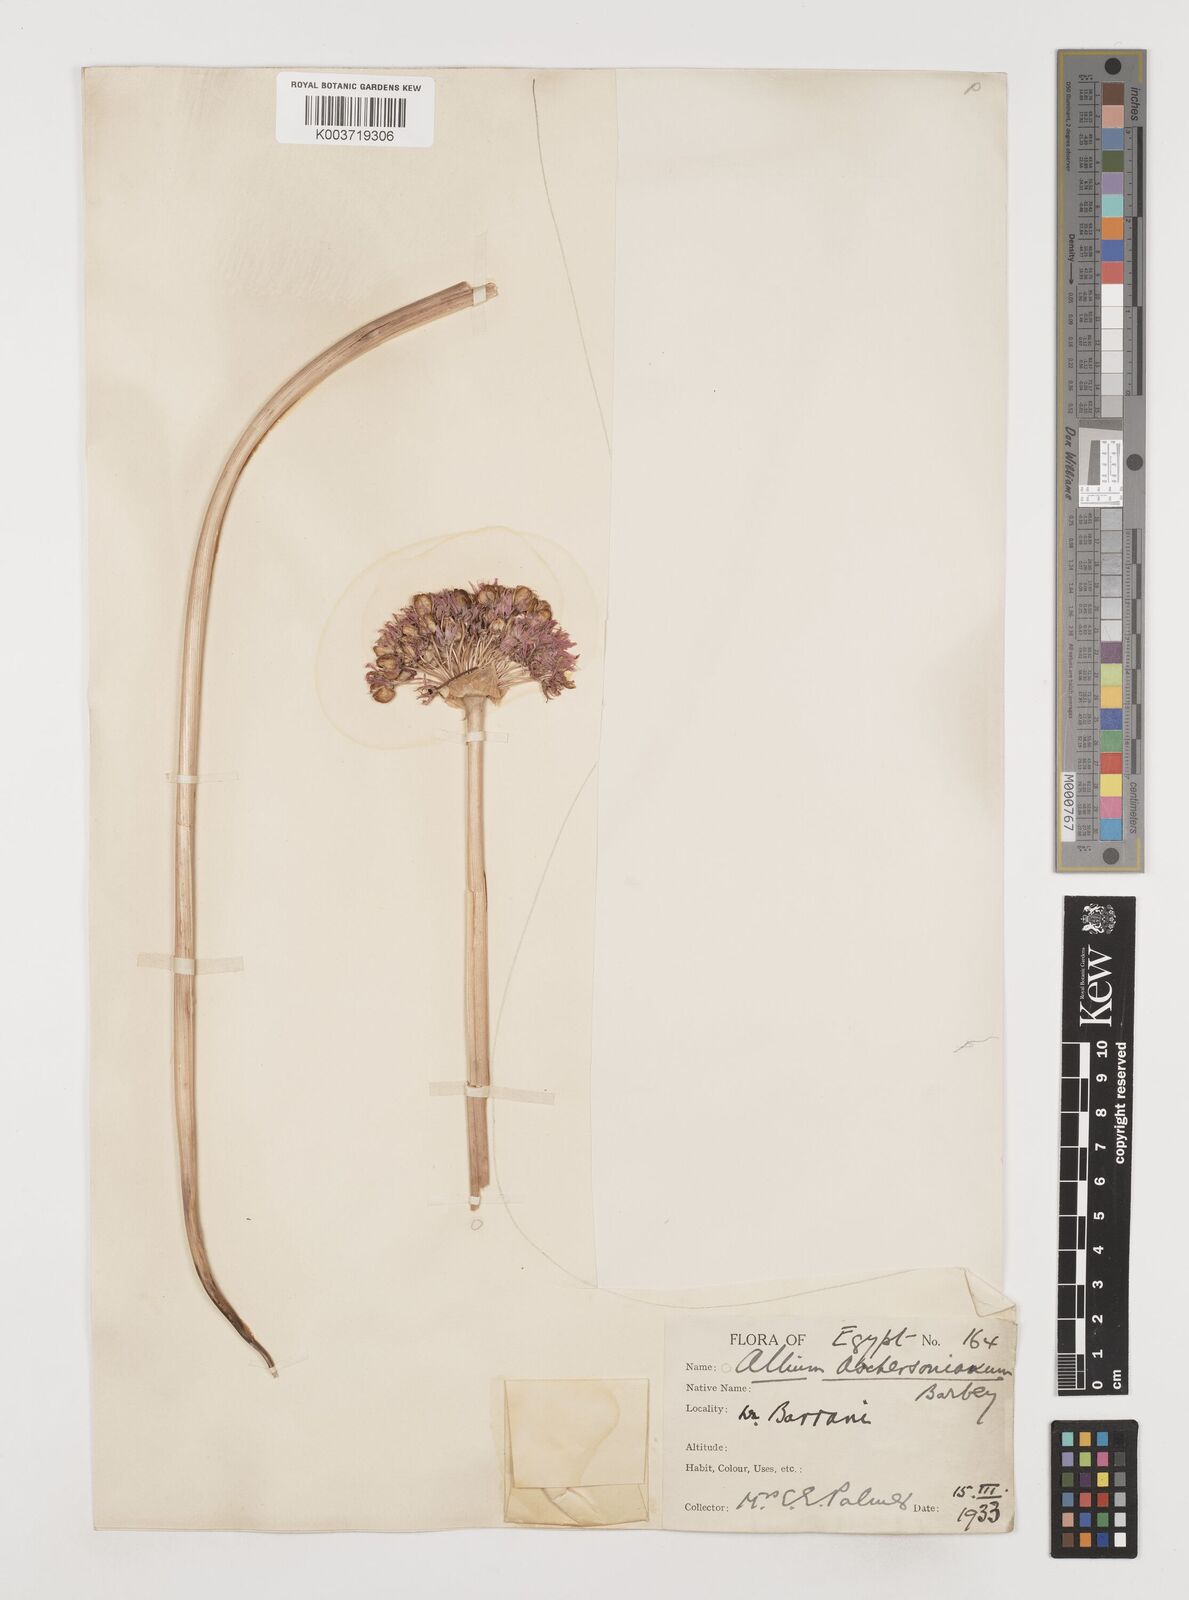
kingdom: Plantae
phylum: Tracheophyta
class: Liliopsida
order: Asparagales
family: Amaryllidaceae
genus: Allium
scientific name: Allium orientale
